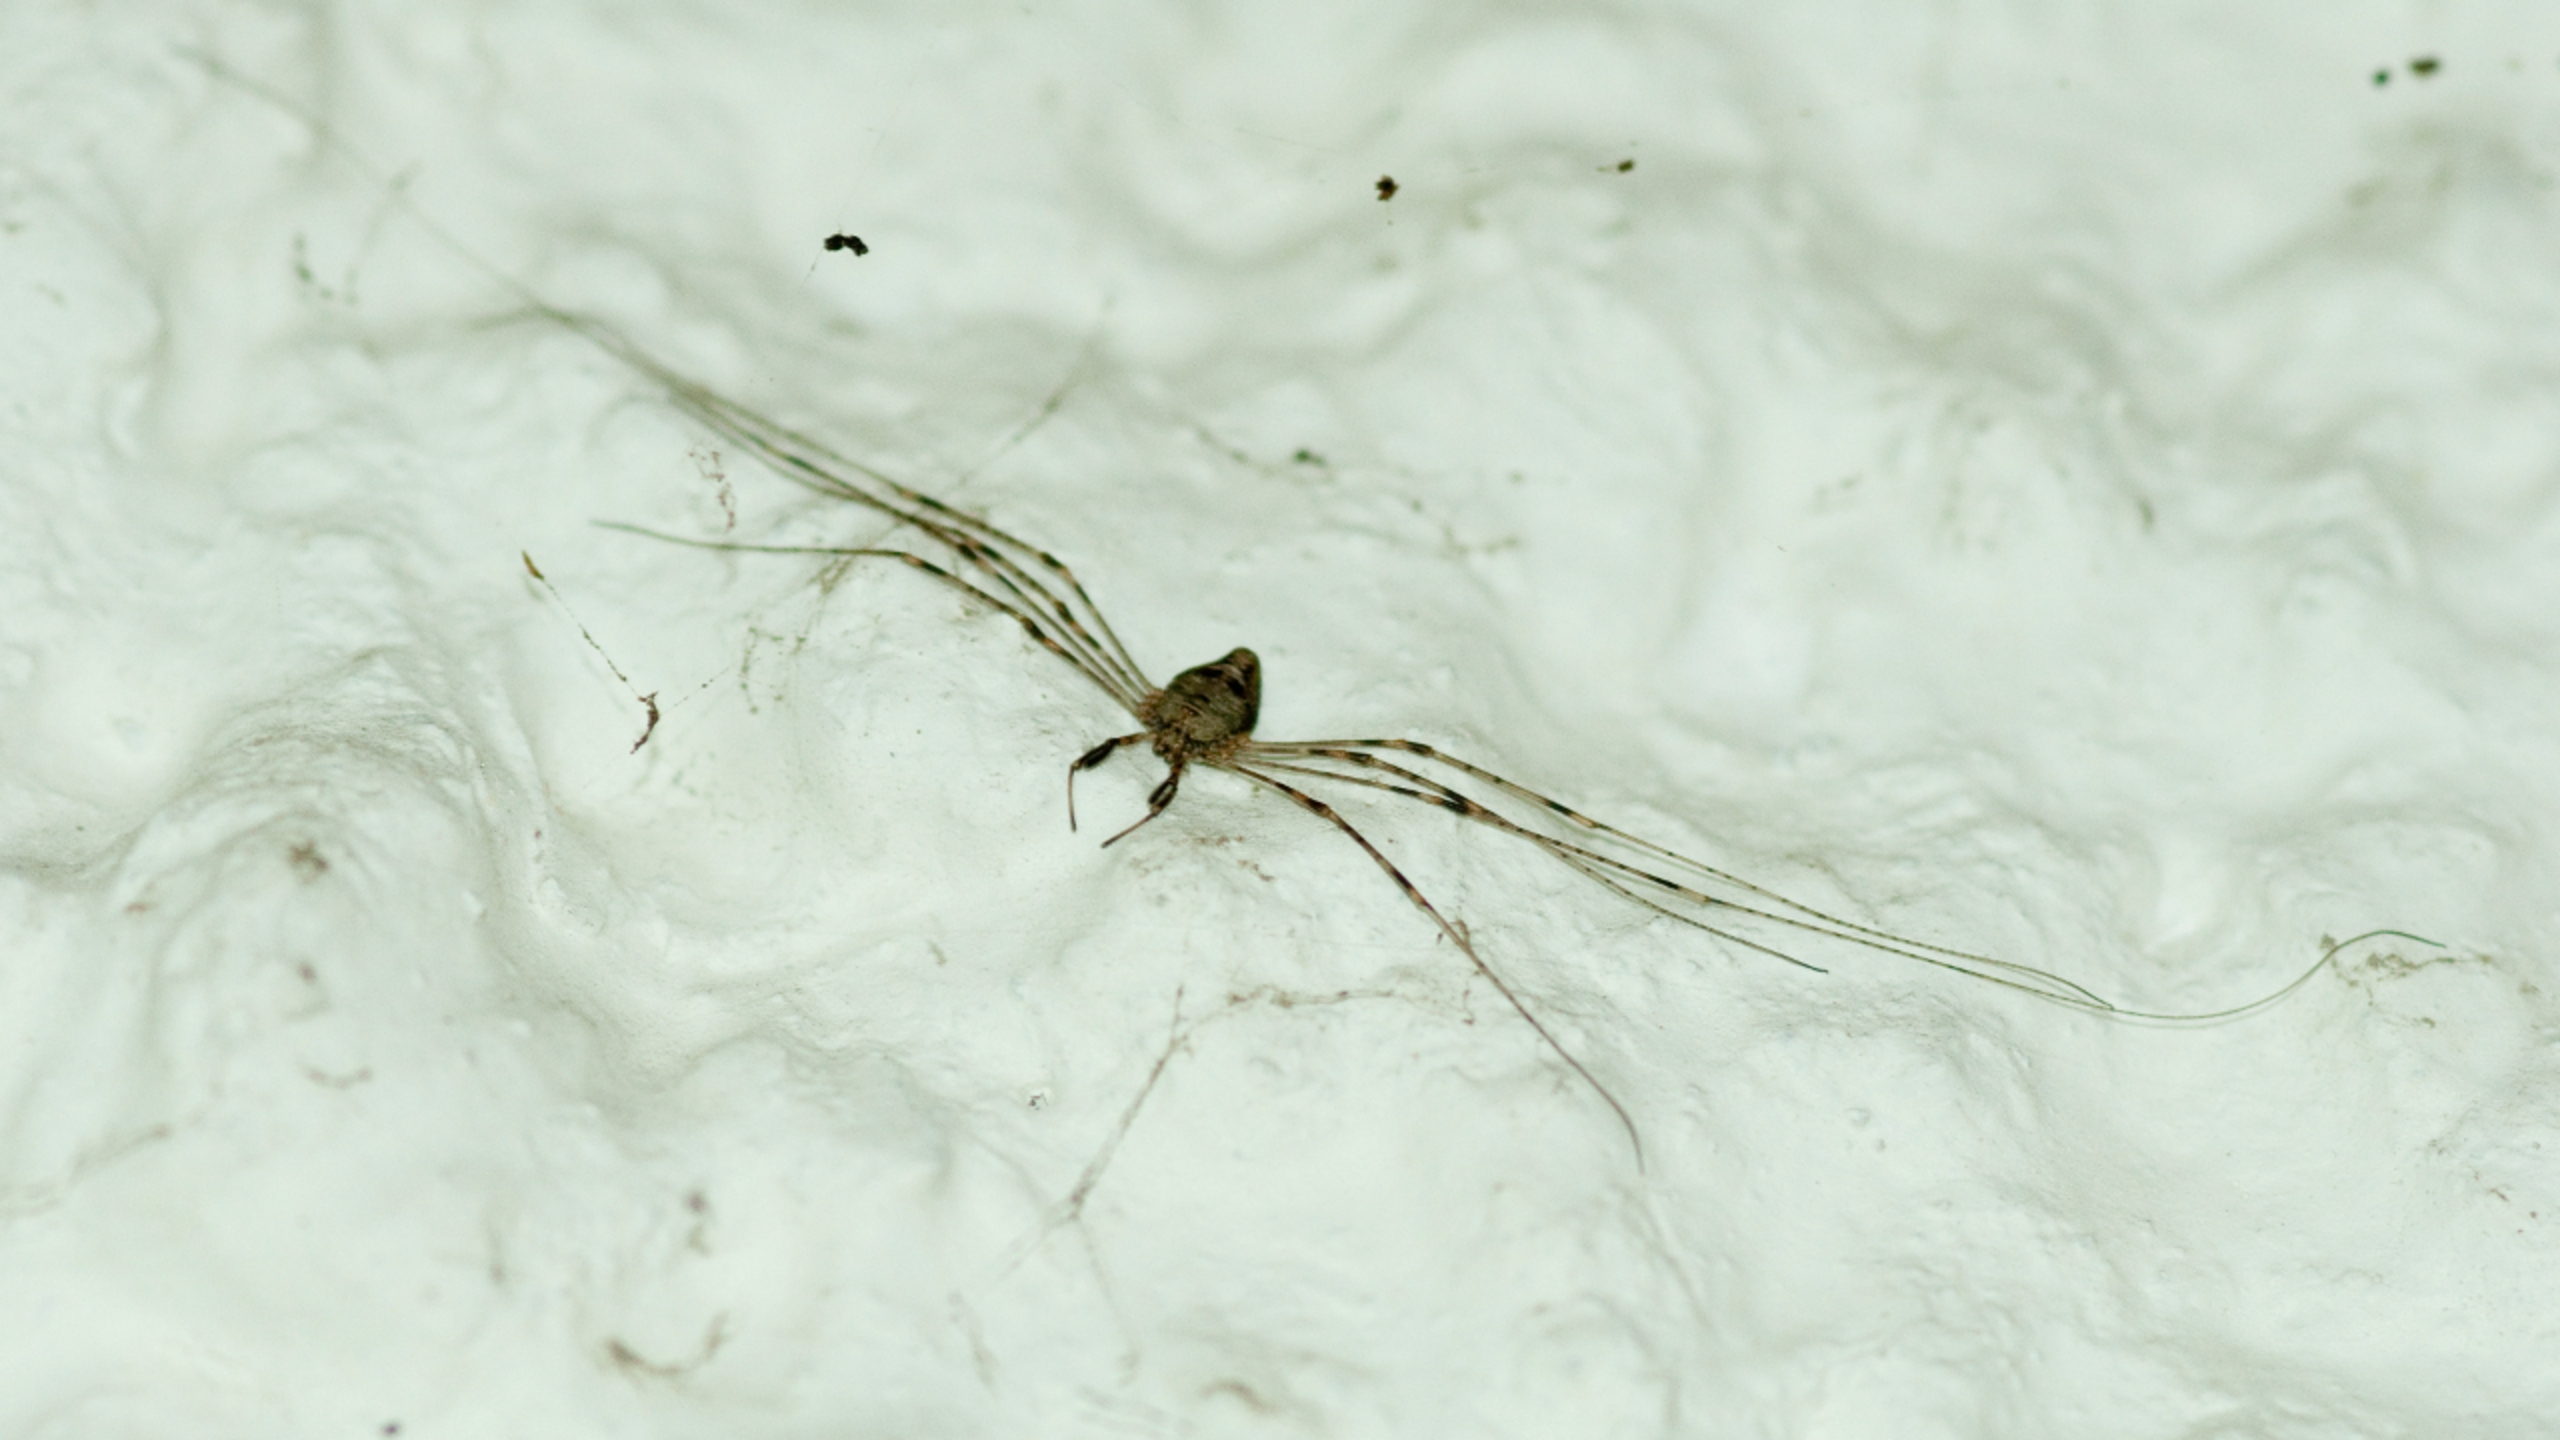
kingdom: Animalia
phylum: Arthropoda
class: Arachnida
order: Opiliones
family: Phalangiidae
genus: Dicranopalpus
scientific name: Dicranopalpus ramosus
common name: Gaffelmejer
